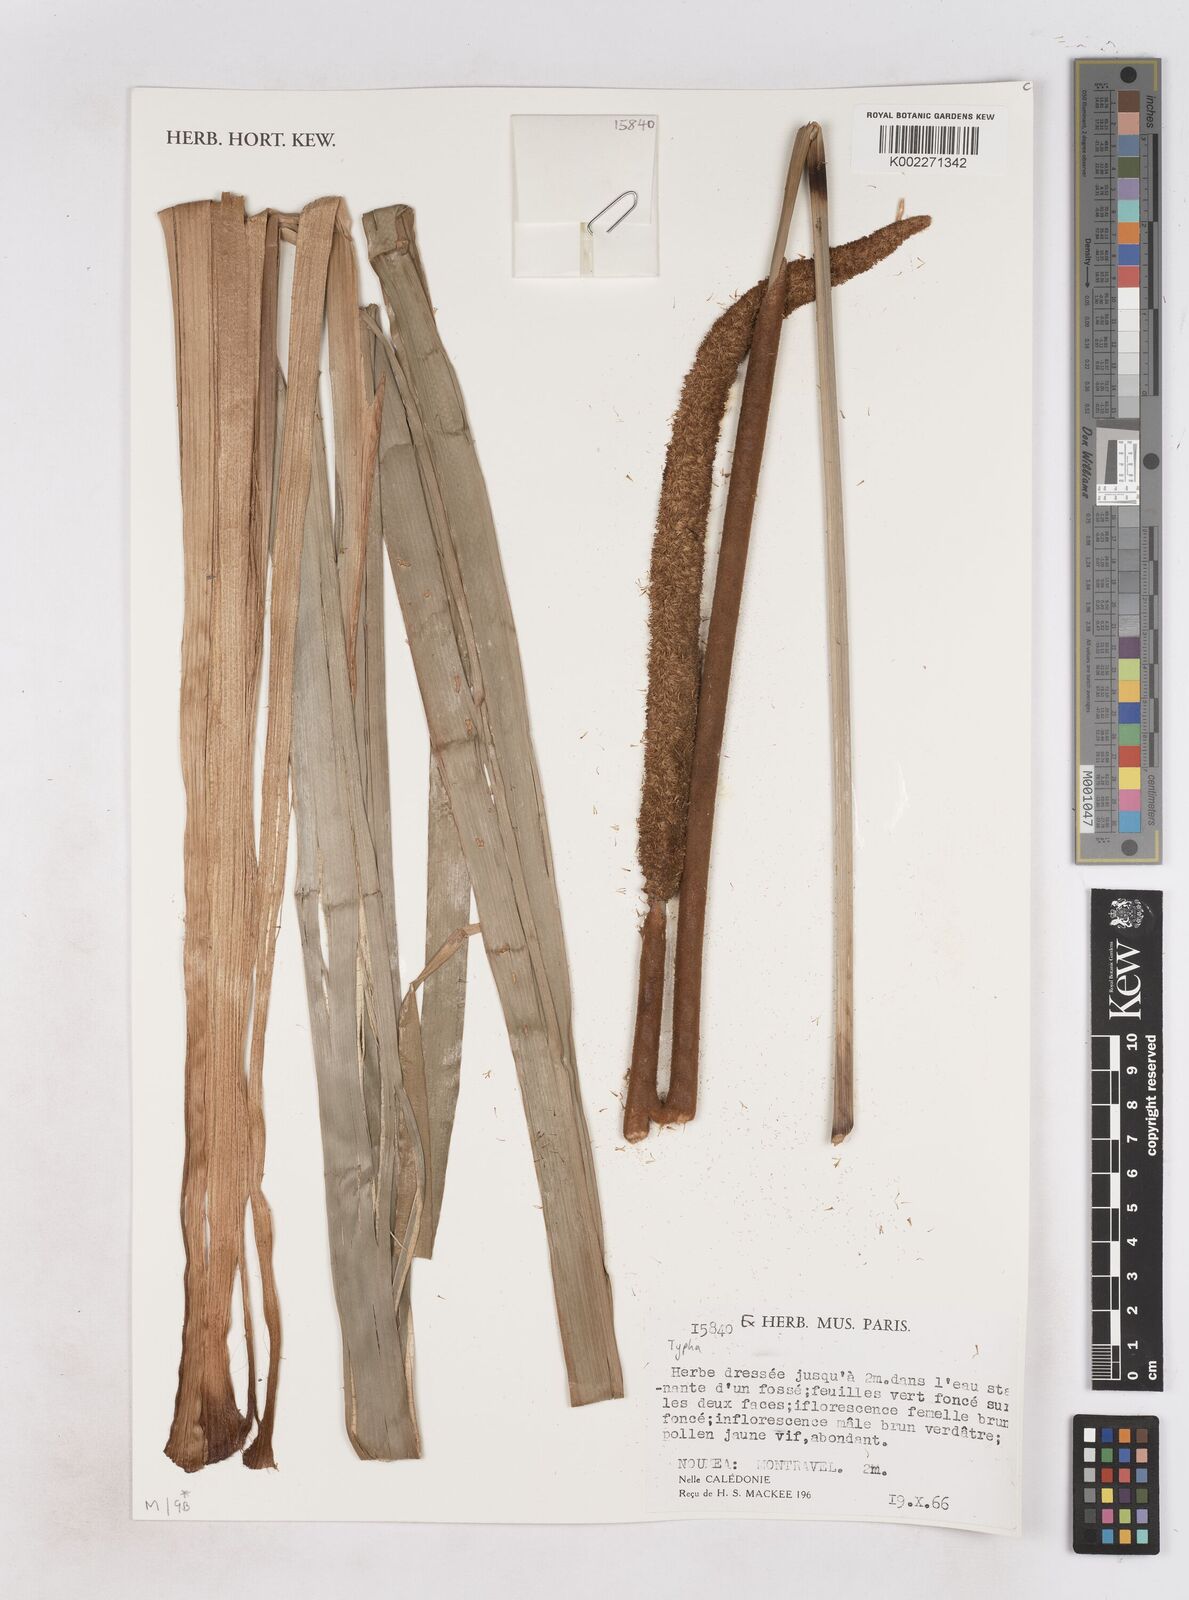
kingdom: Plantae
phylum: Tracheophyta
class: Liliopsida
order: Poales
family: Typhaceae
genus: Typha
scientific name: Typha
